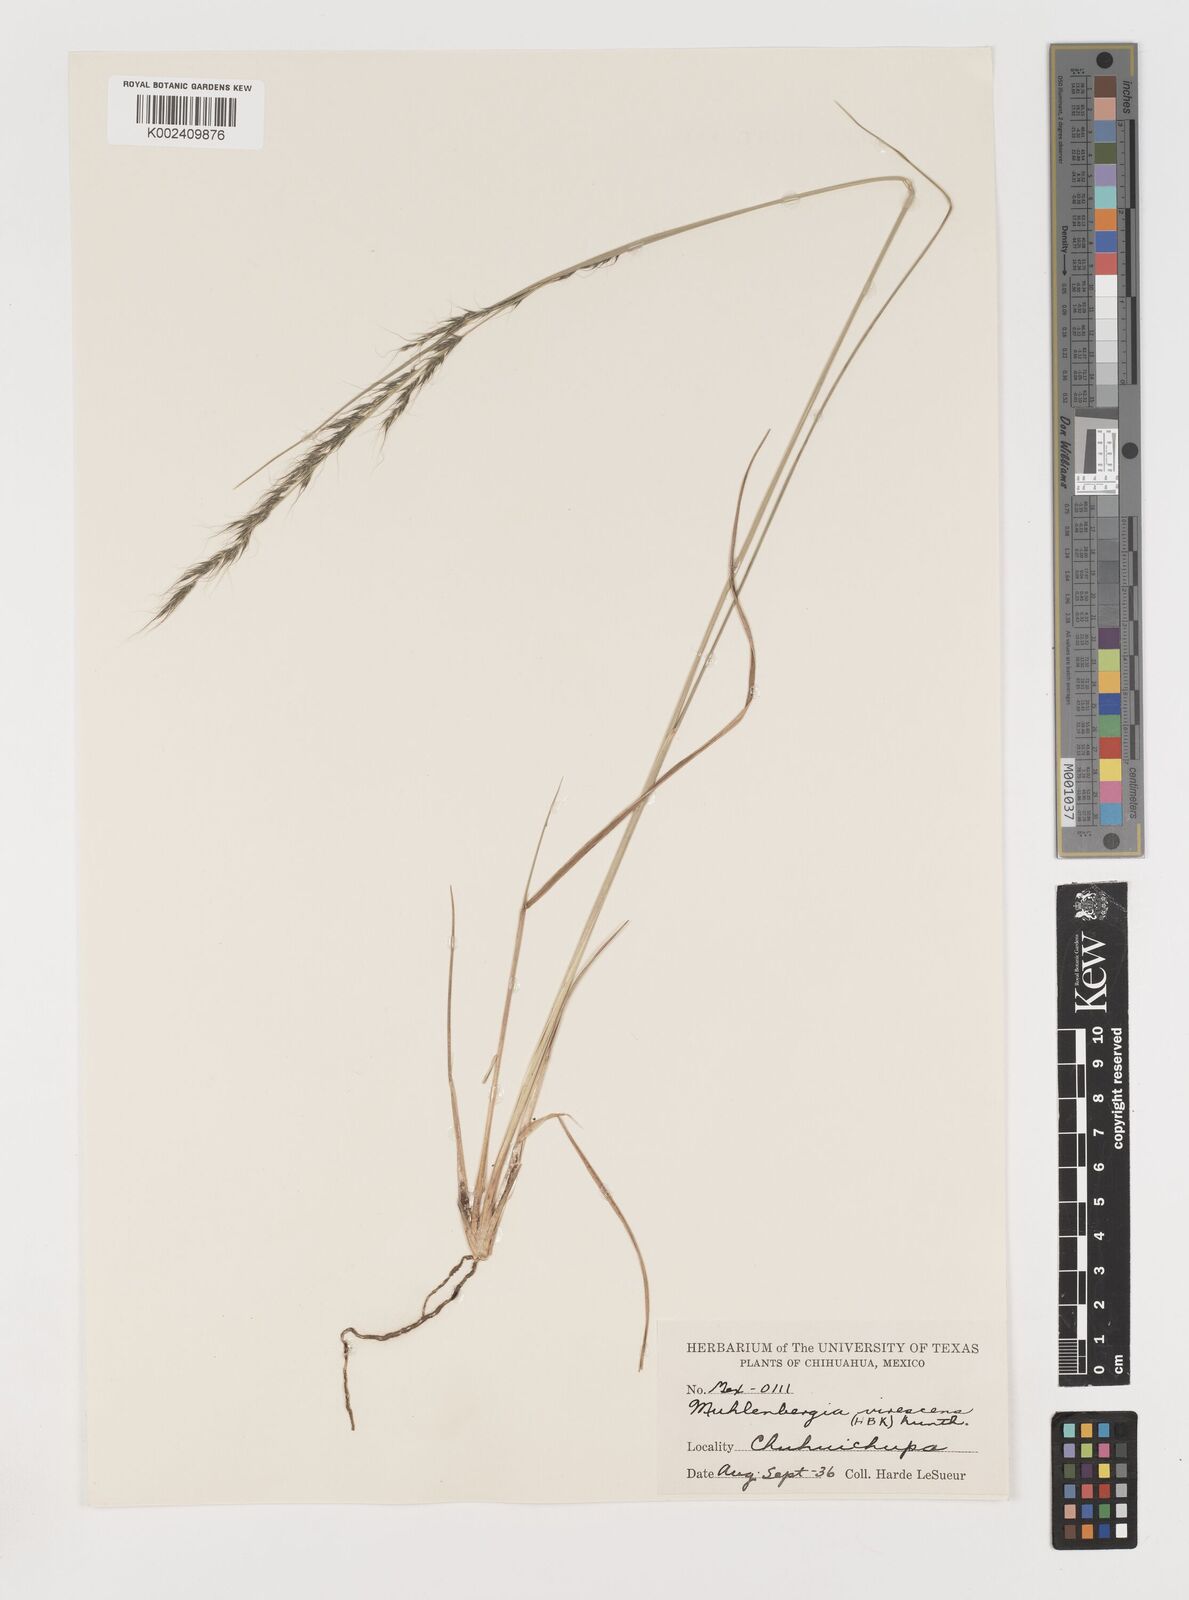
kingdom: Plantae
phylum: Tracheophyta
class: Liliopsida
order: Poales
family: Poaceae
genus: Muhlenbergia
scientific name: Muhlenbergia virescens
